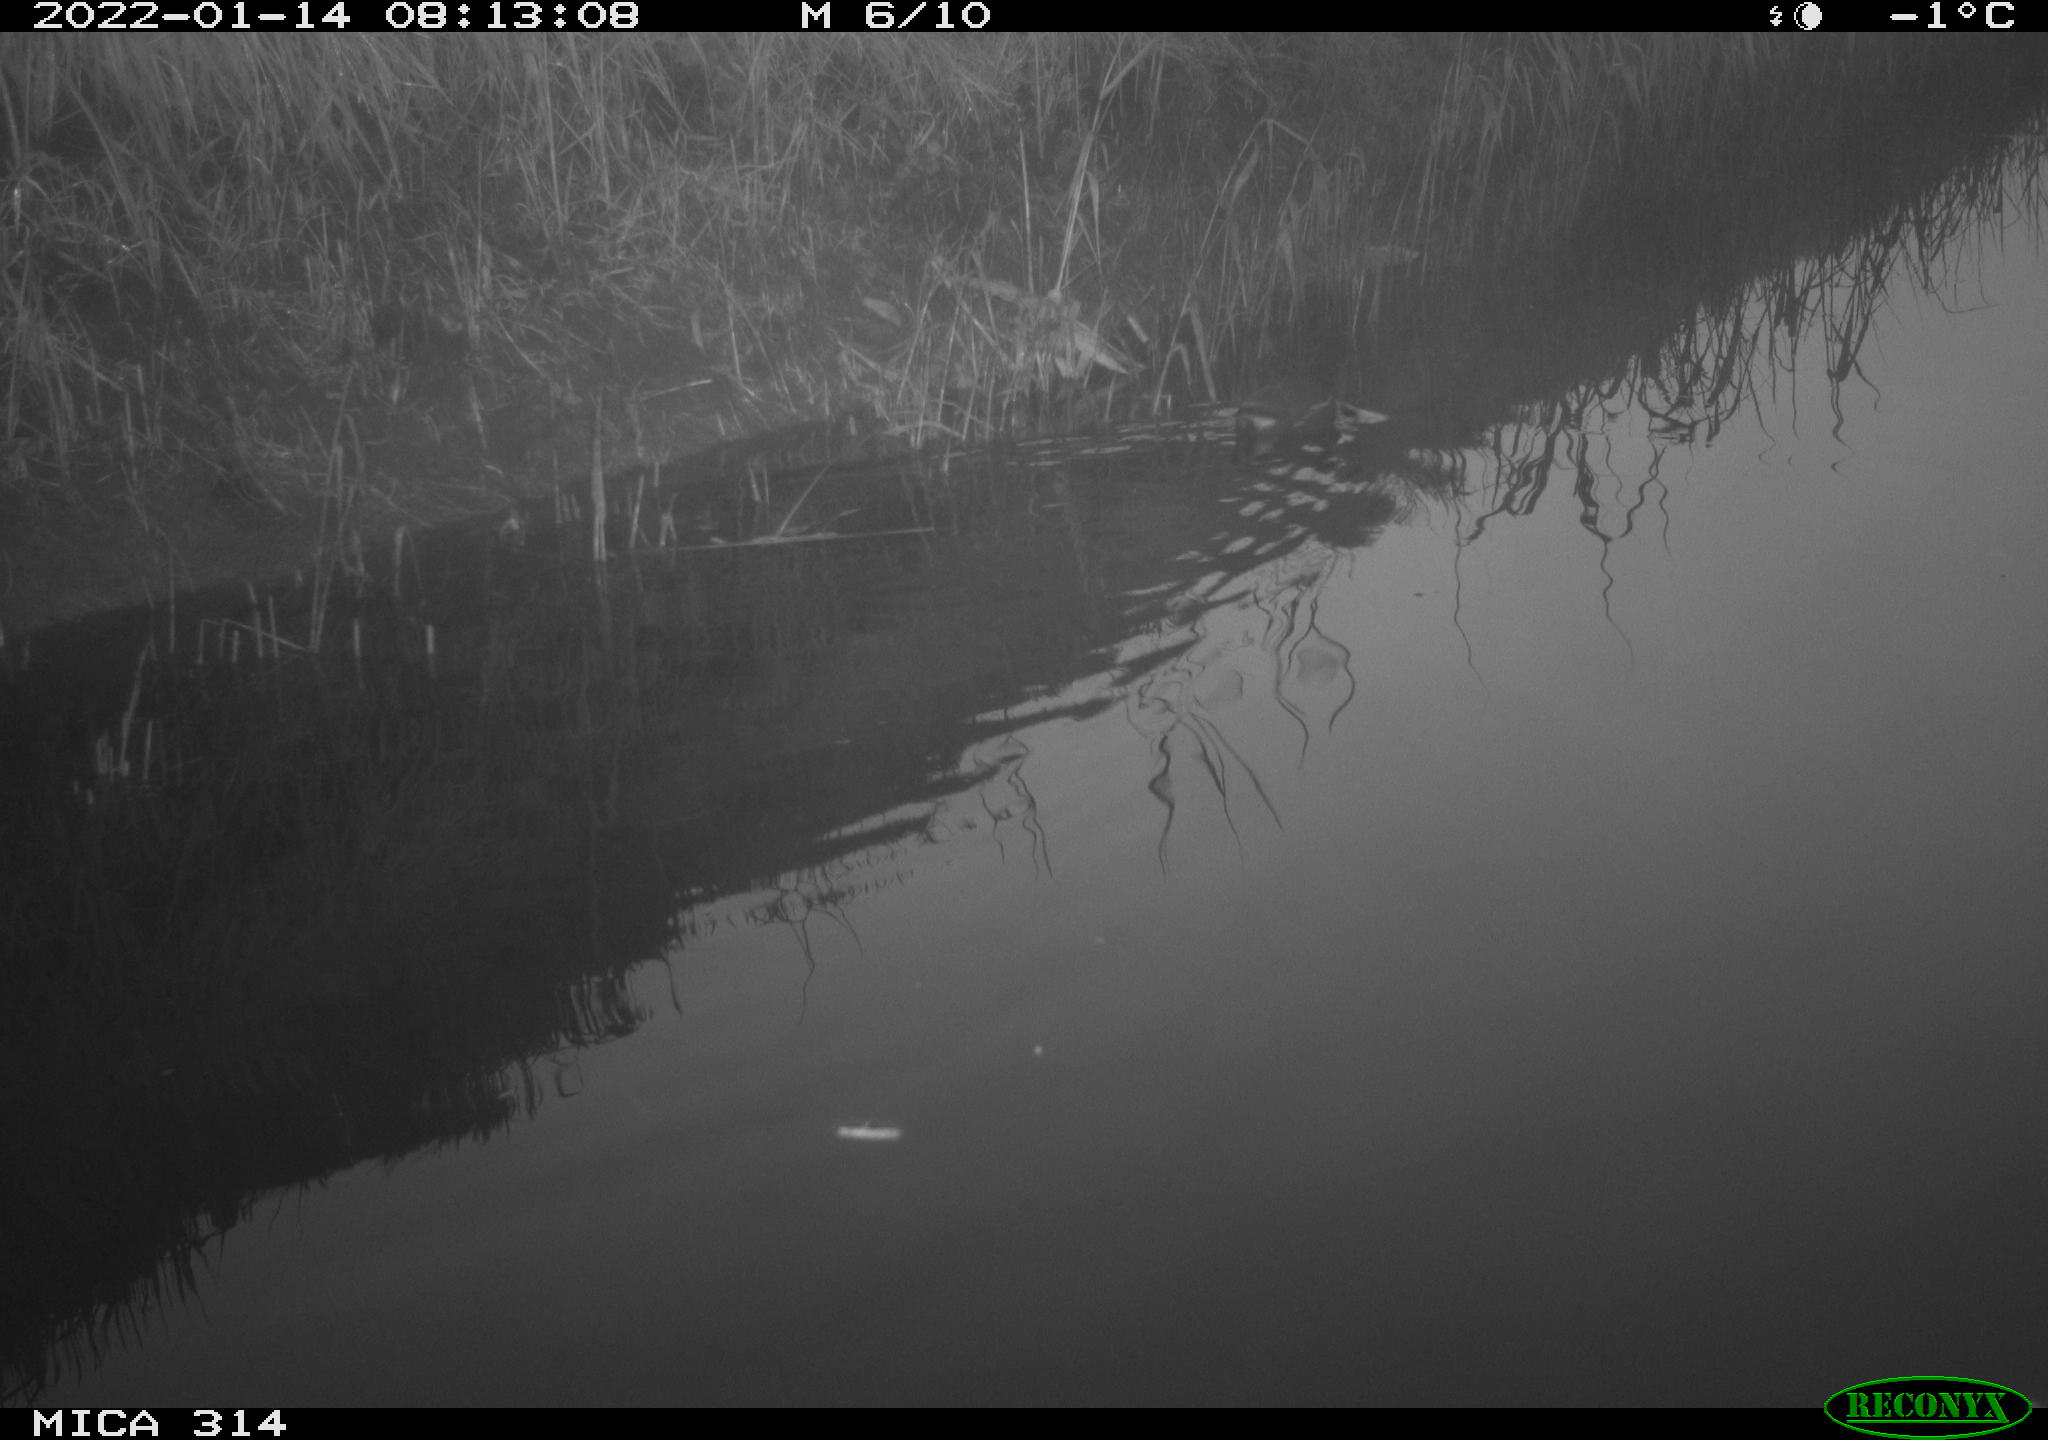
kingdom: Animalia
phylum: Chordata
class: Aves
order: Gruiformes
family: Rallidae
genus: Gallinula
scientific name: Gallinula chloropus
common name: Common moorhen
